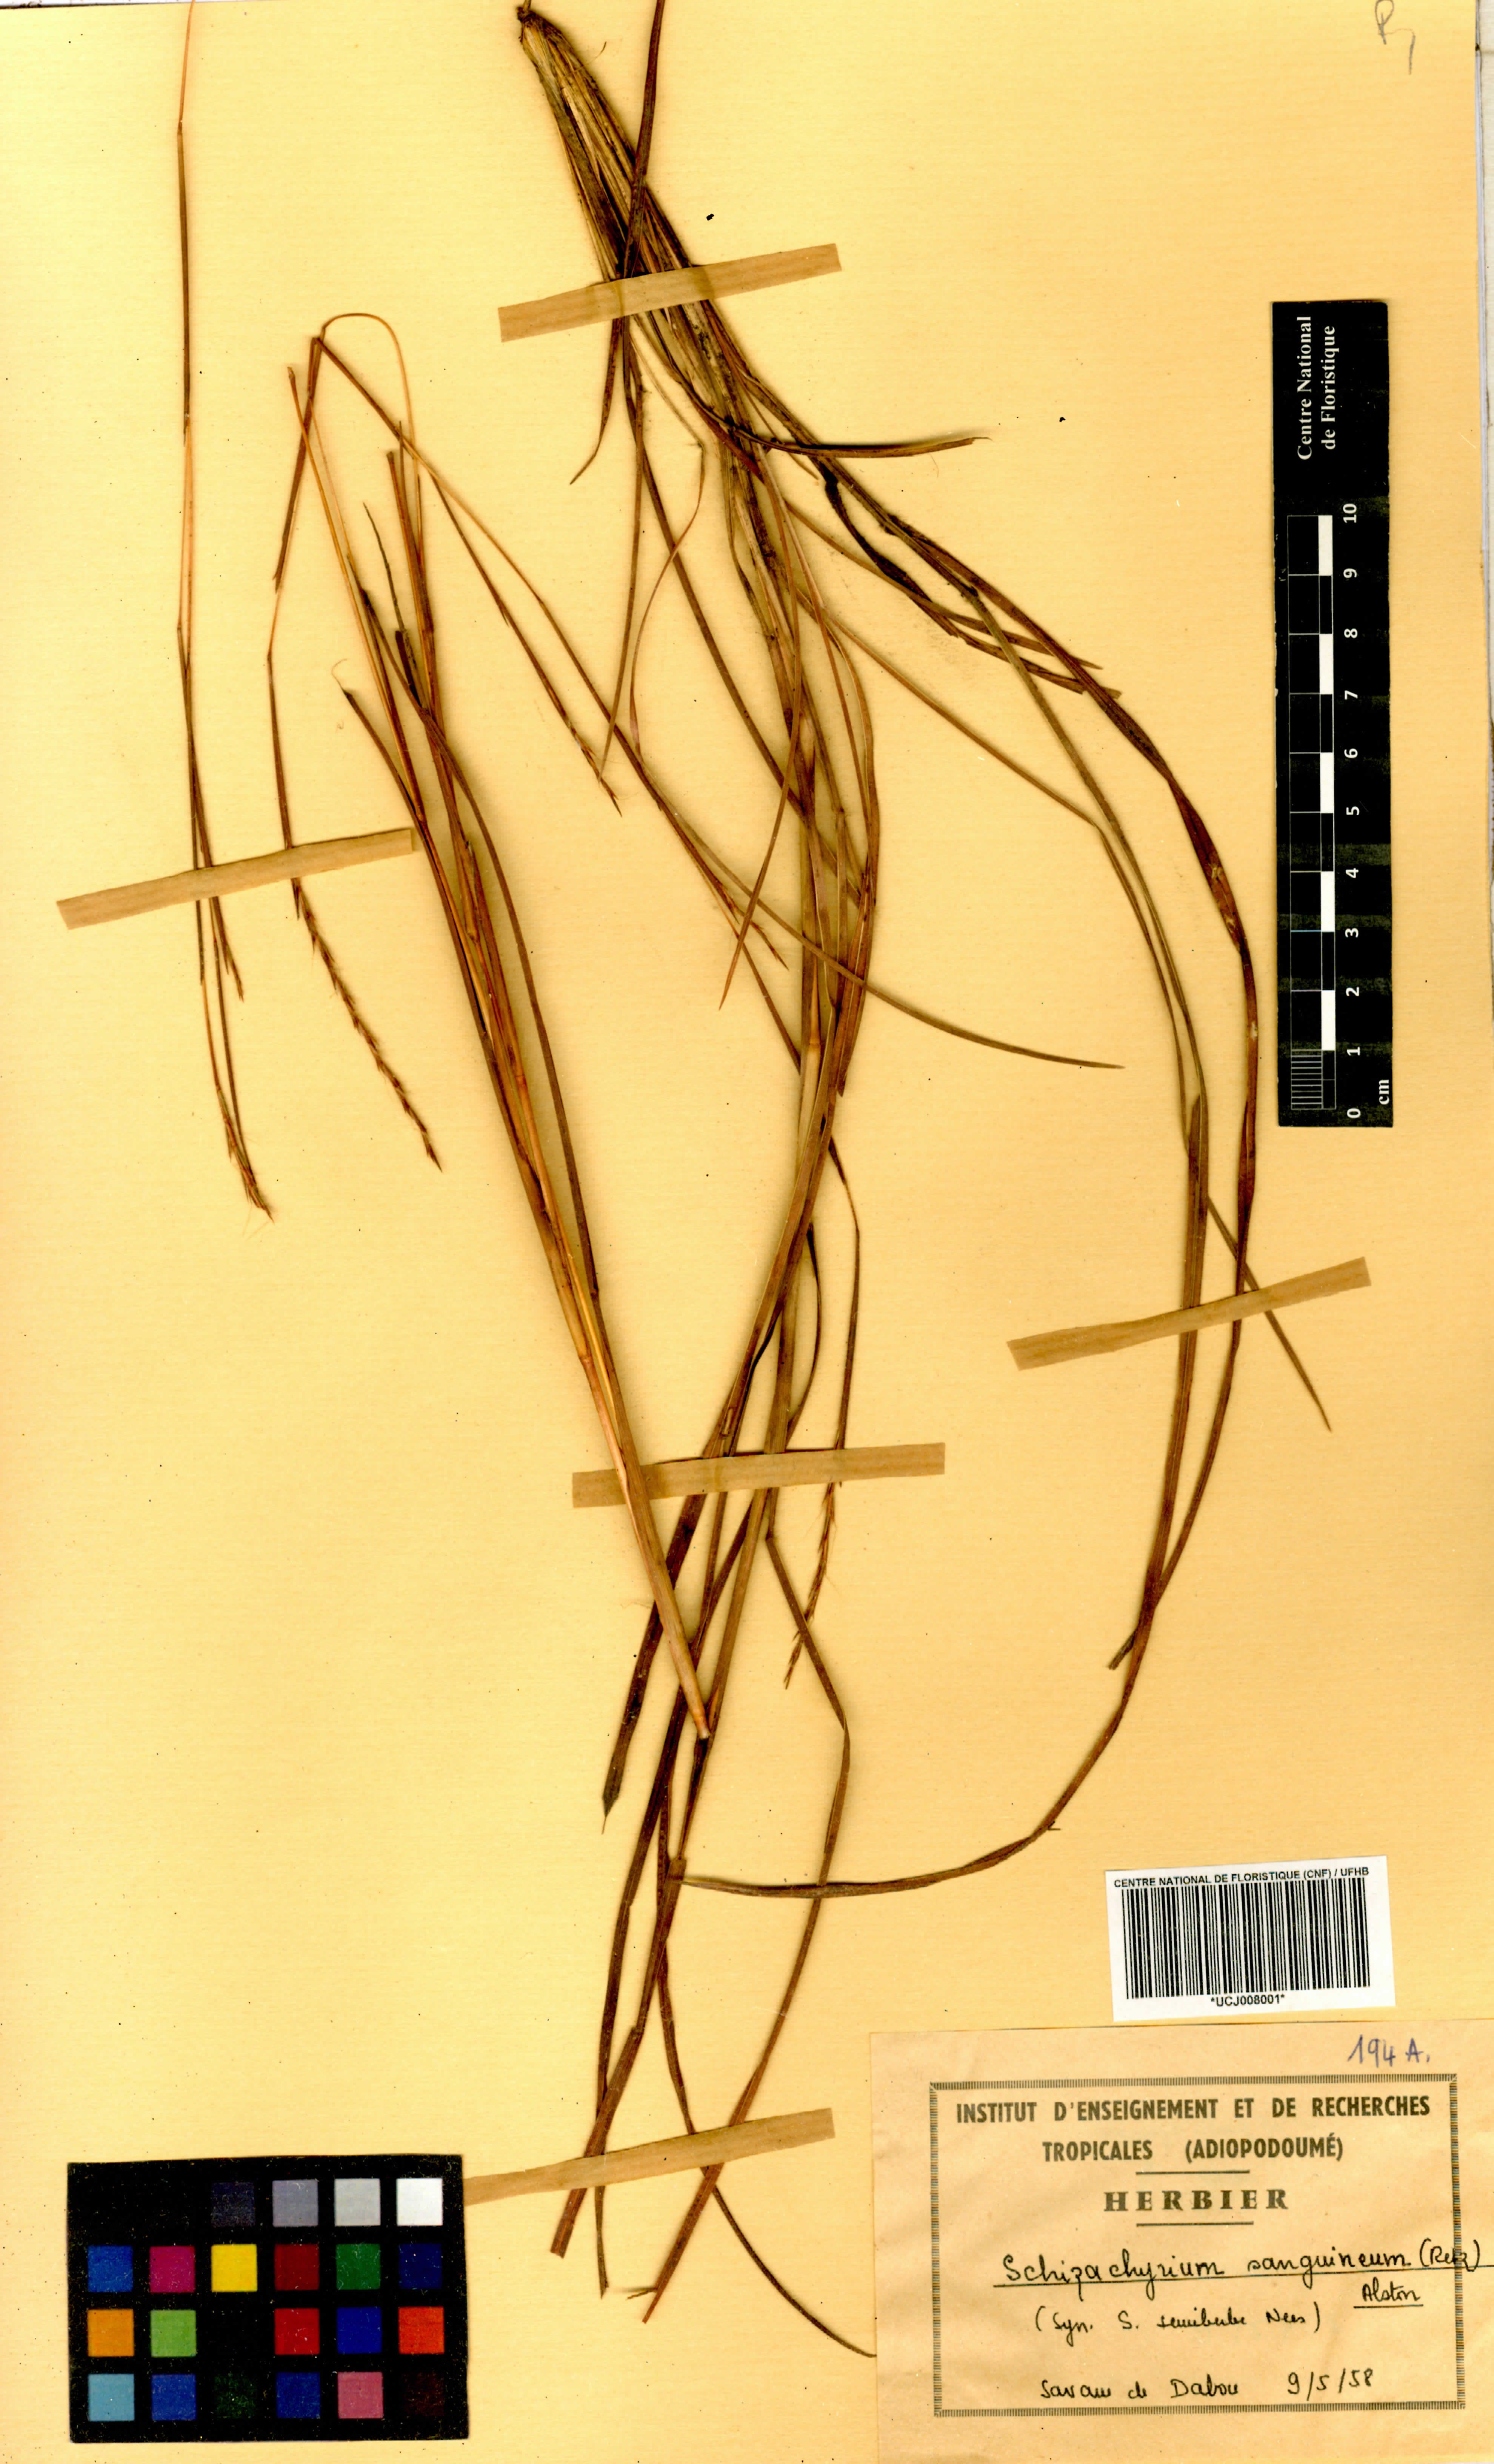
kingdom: Plantae
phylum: Tracheophyta
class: Liliopsida
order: Poales
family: Poaceae
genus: Schizachyrium
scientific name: Schizachyrium sanguineum
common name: Crimson bluestem
